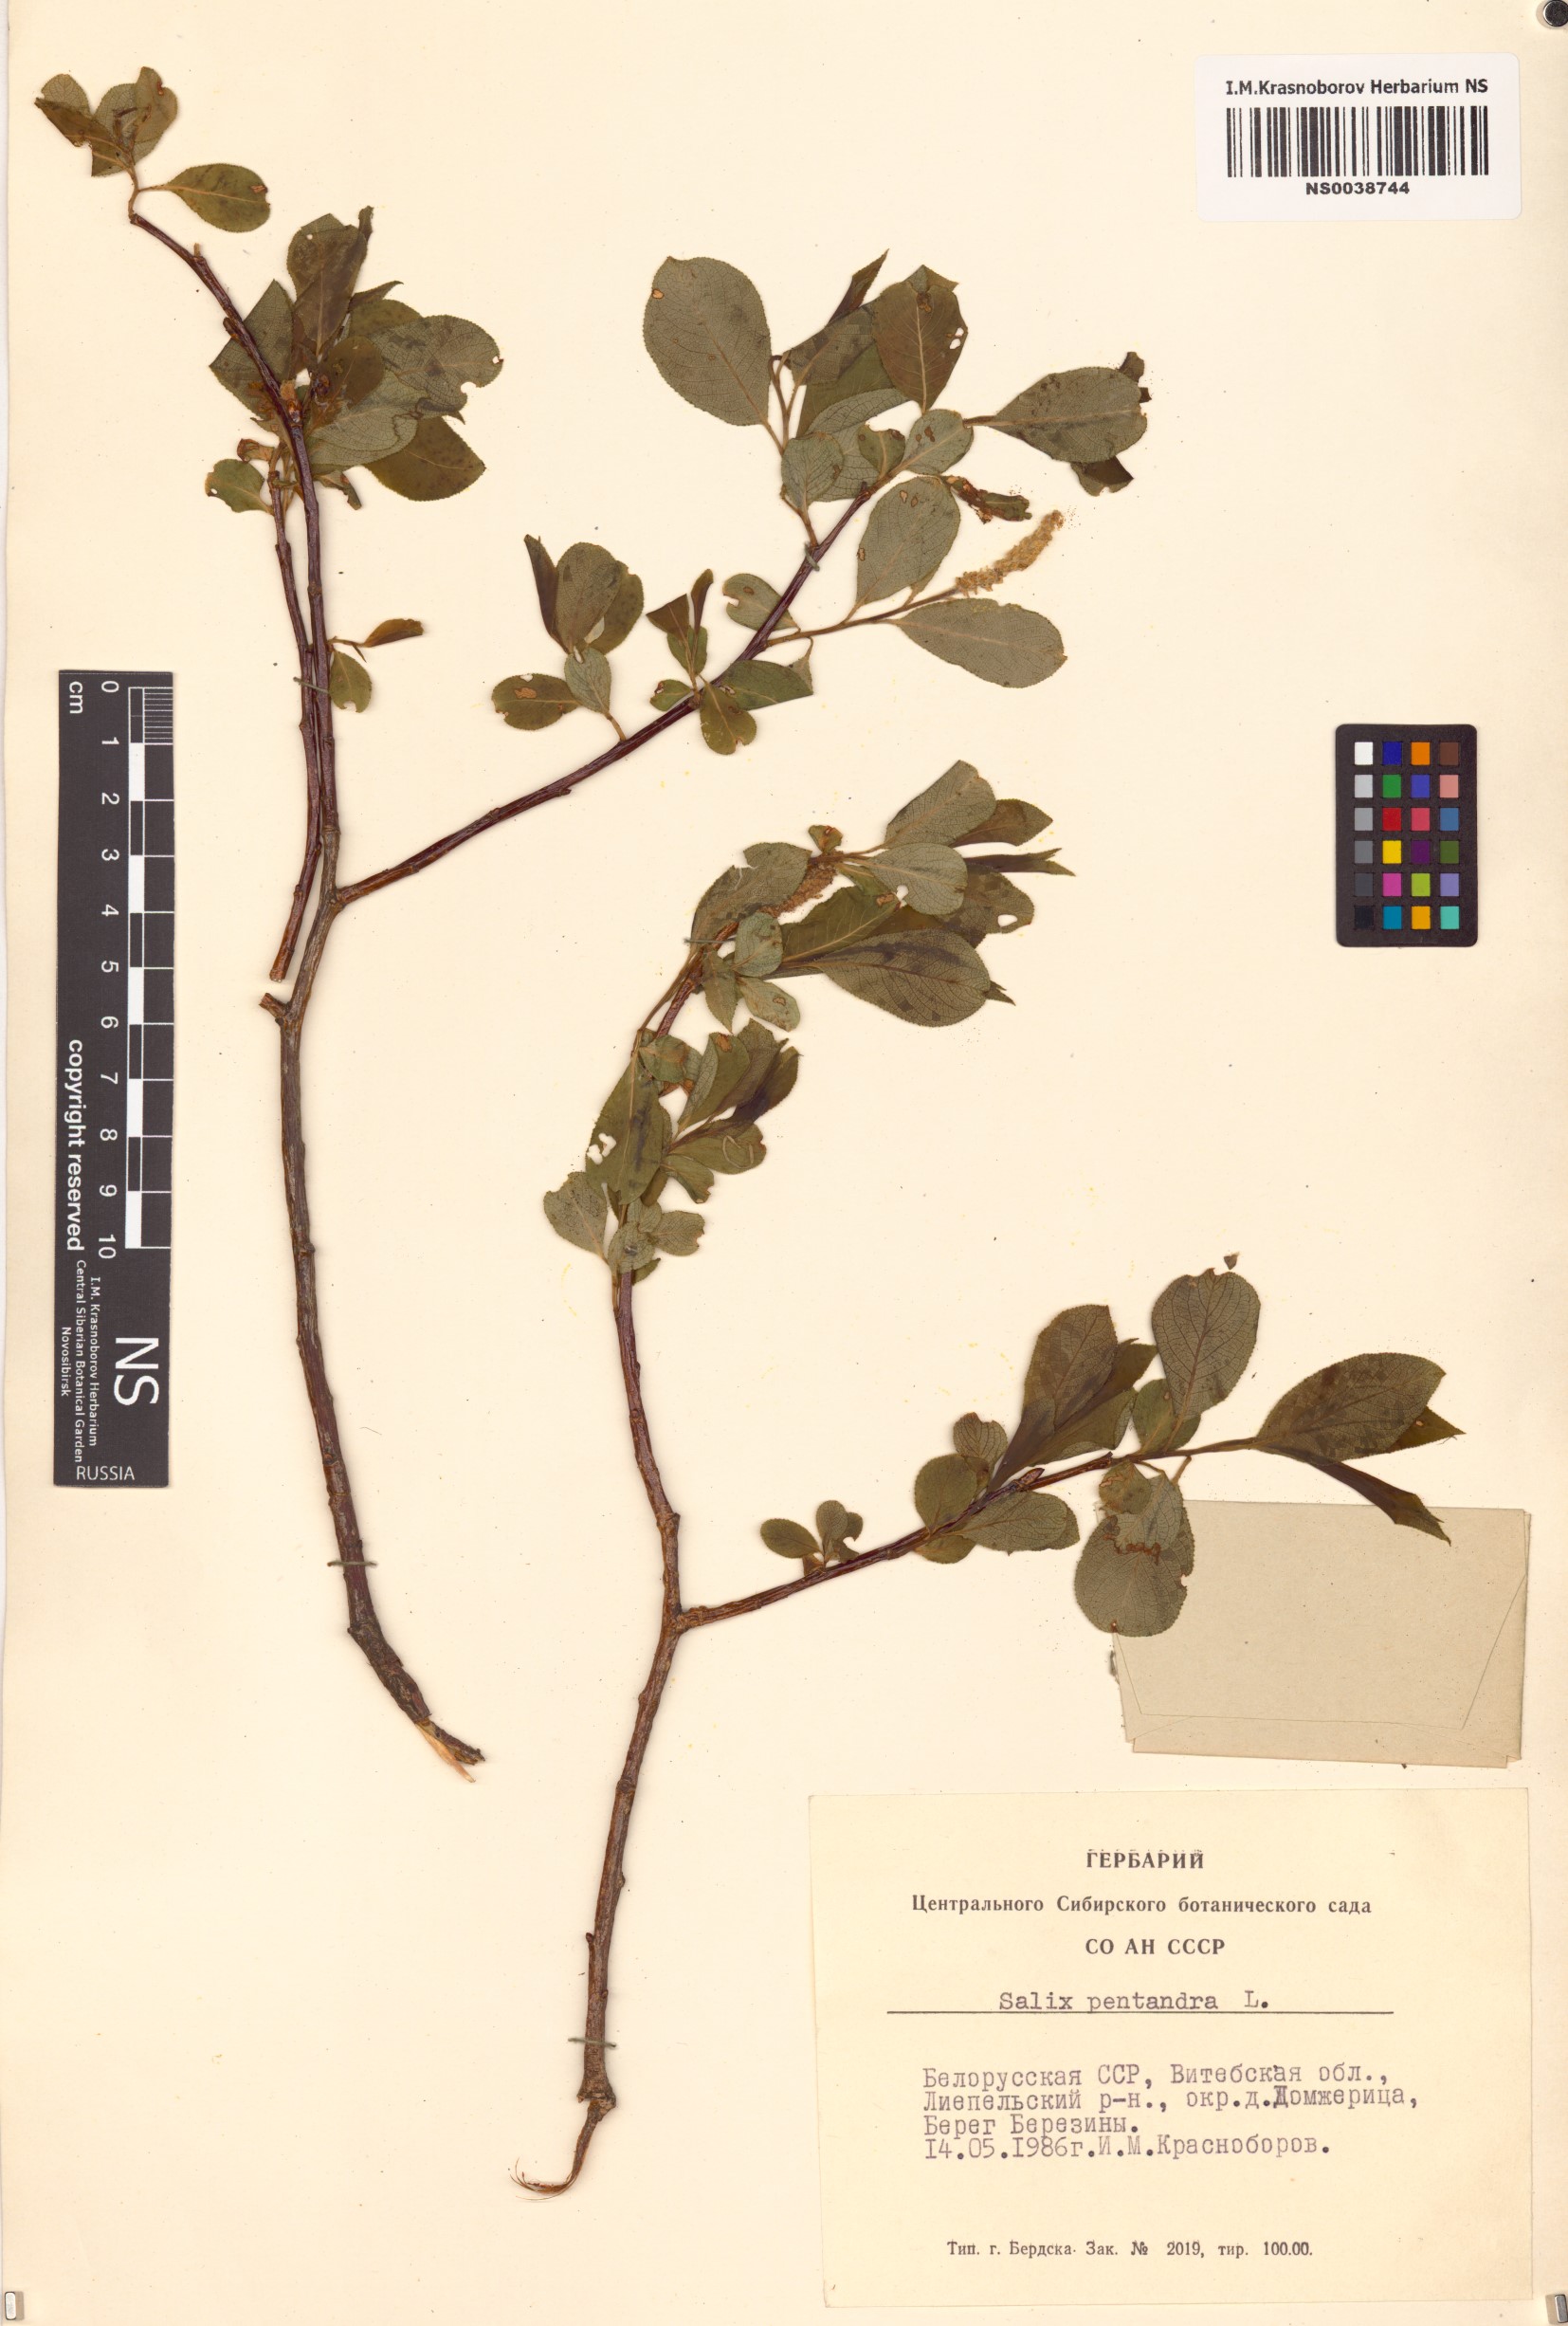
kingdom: Plantae
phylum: Tracheophyta
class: Magnoliopsida
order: Malpighiales
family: Salicaceae
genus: Salix
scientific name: Salix pentandra
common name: Bay willow
